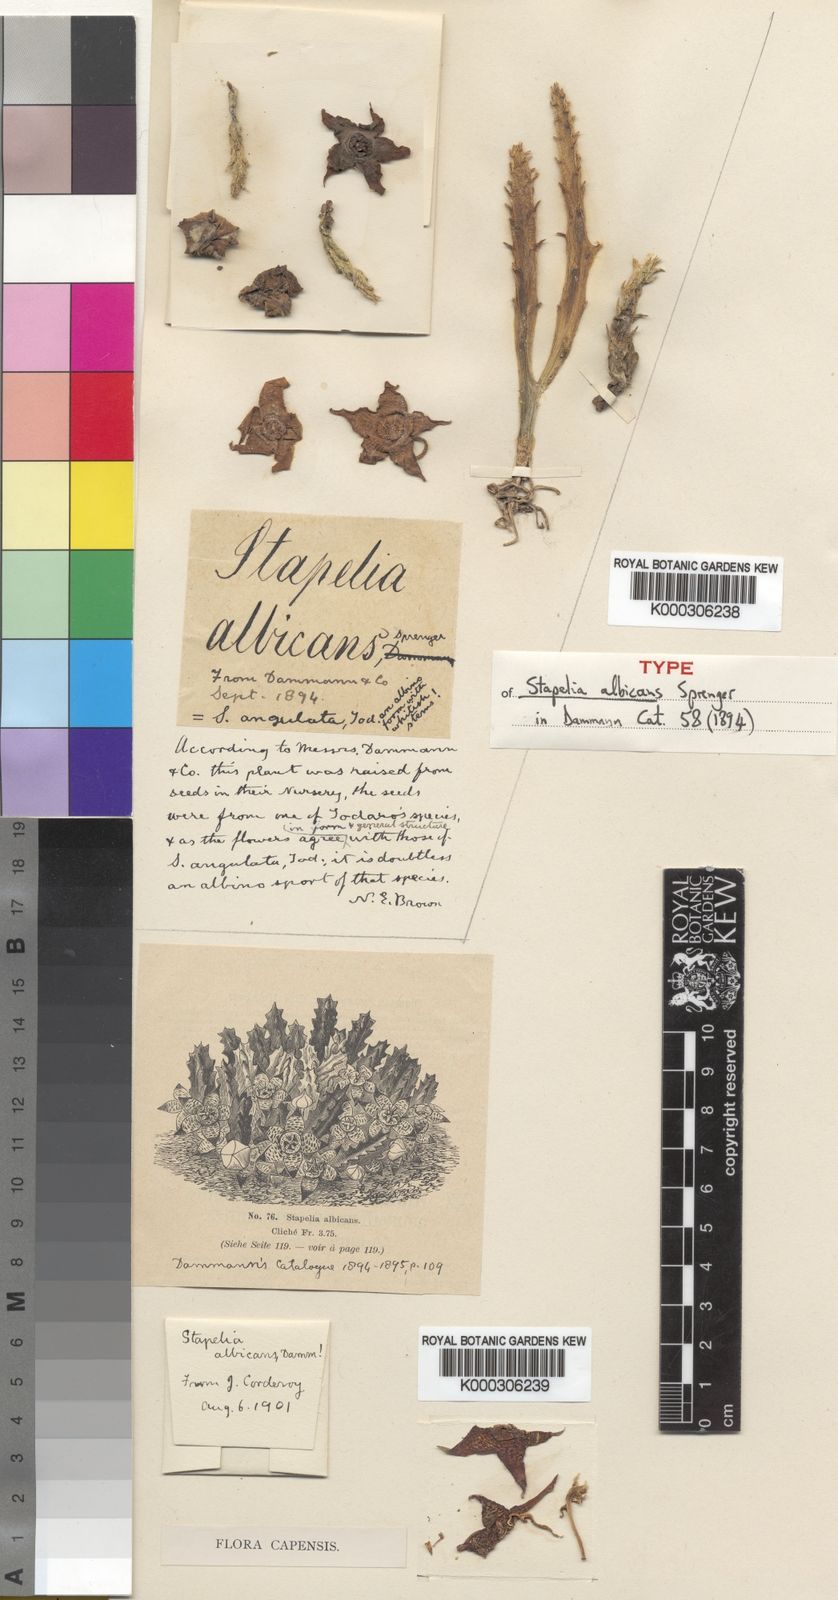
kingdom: Plantae
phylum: Tracheophyta
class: Magnoliopsida
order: Gentianales
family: Apocynaceae
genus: Stapelia
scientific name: Stapelia
